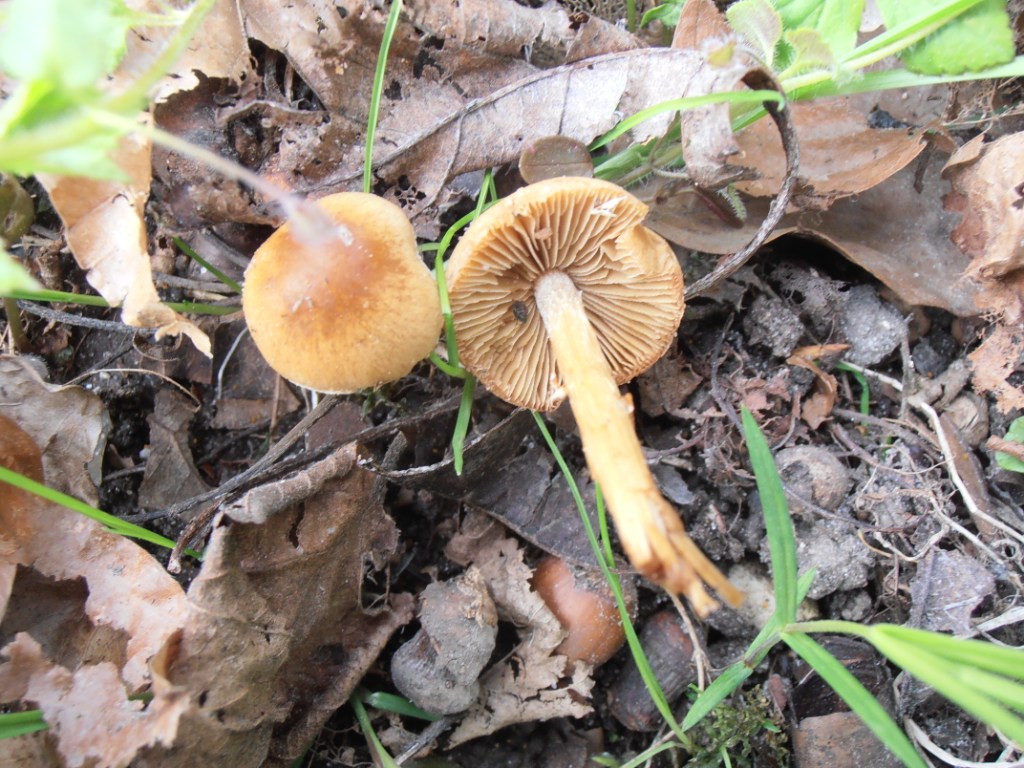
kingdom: Fungi
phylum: Basidiomycota
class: Agaricomycetes
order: Agaricales
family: Bolbitiaceae
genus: Conocybe
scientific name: Conocybe aporos
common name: tidlig dansehat
